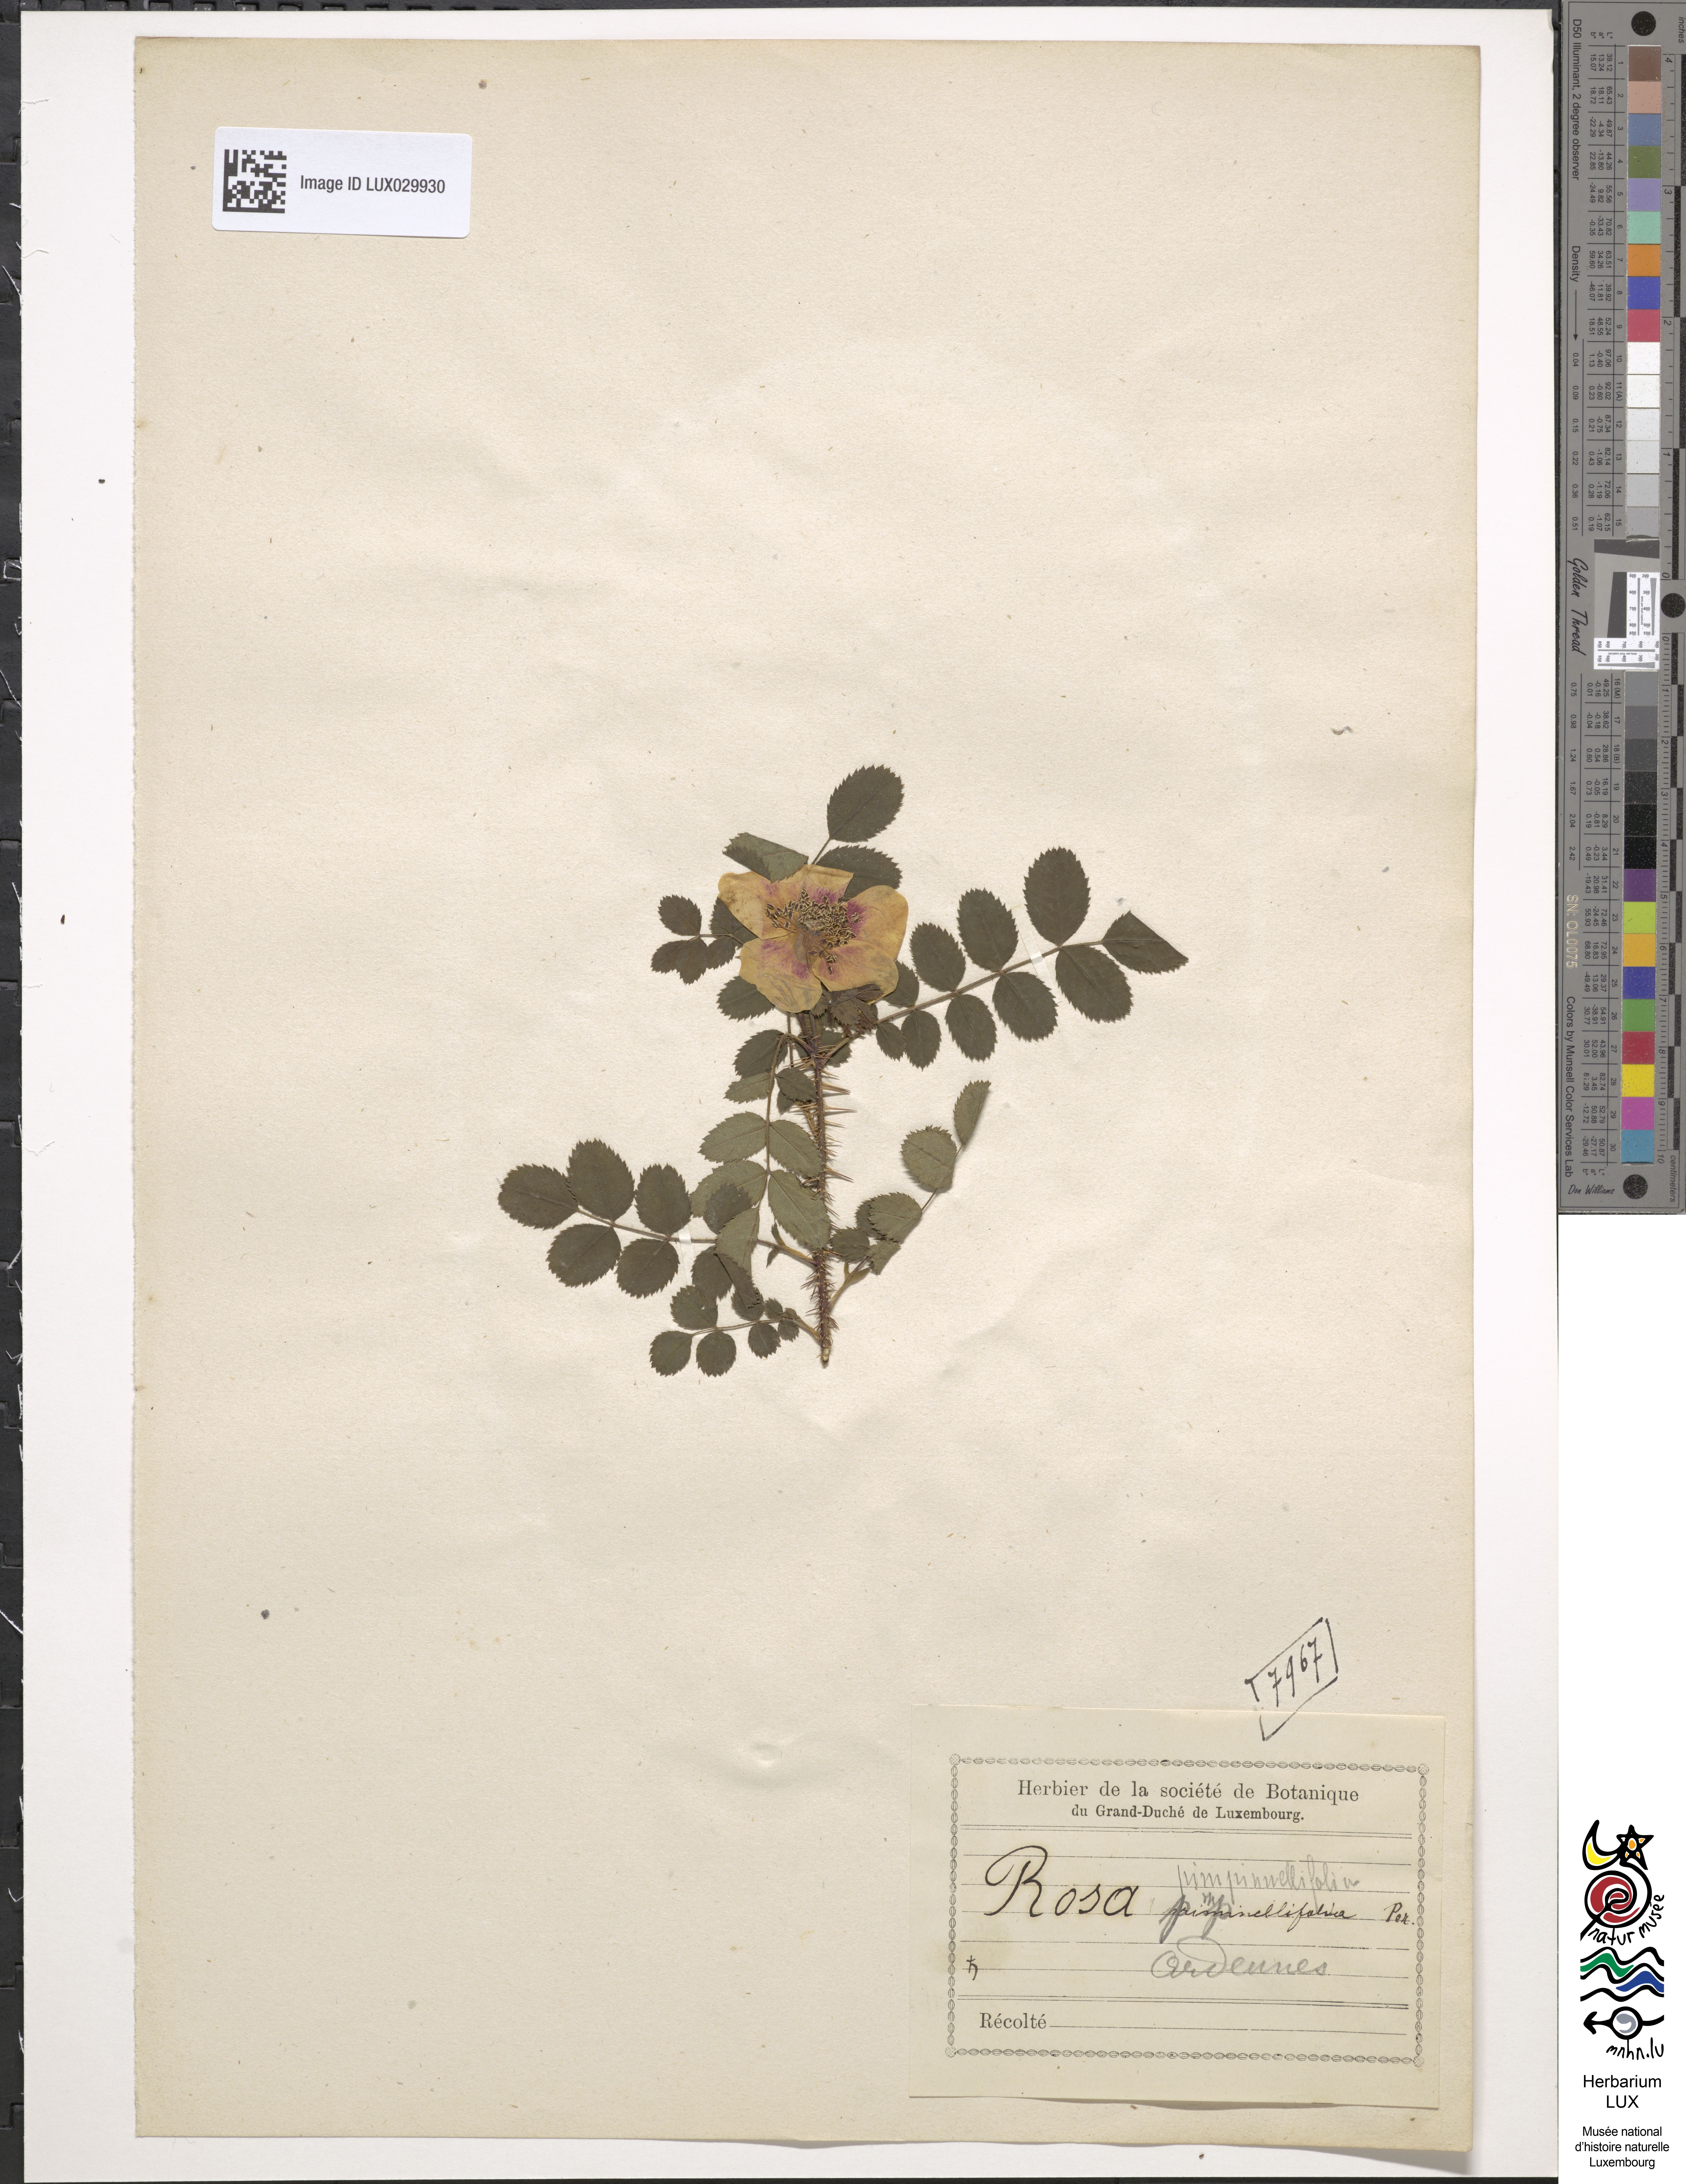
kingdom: Plantae
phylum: Tracheophyta
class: Magnoliopsida
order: Rosales
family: Rosaceae
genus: Rosa
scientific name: Rosa
